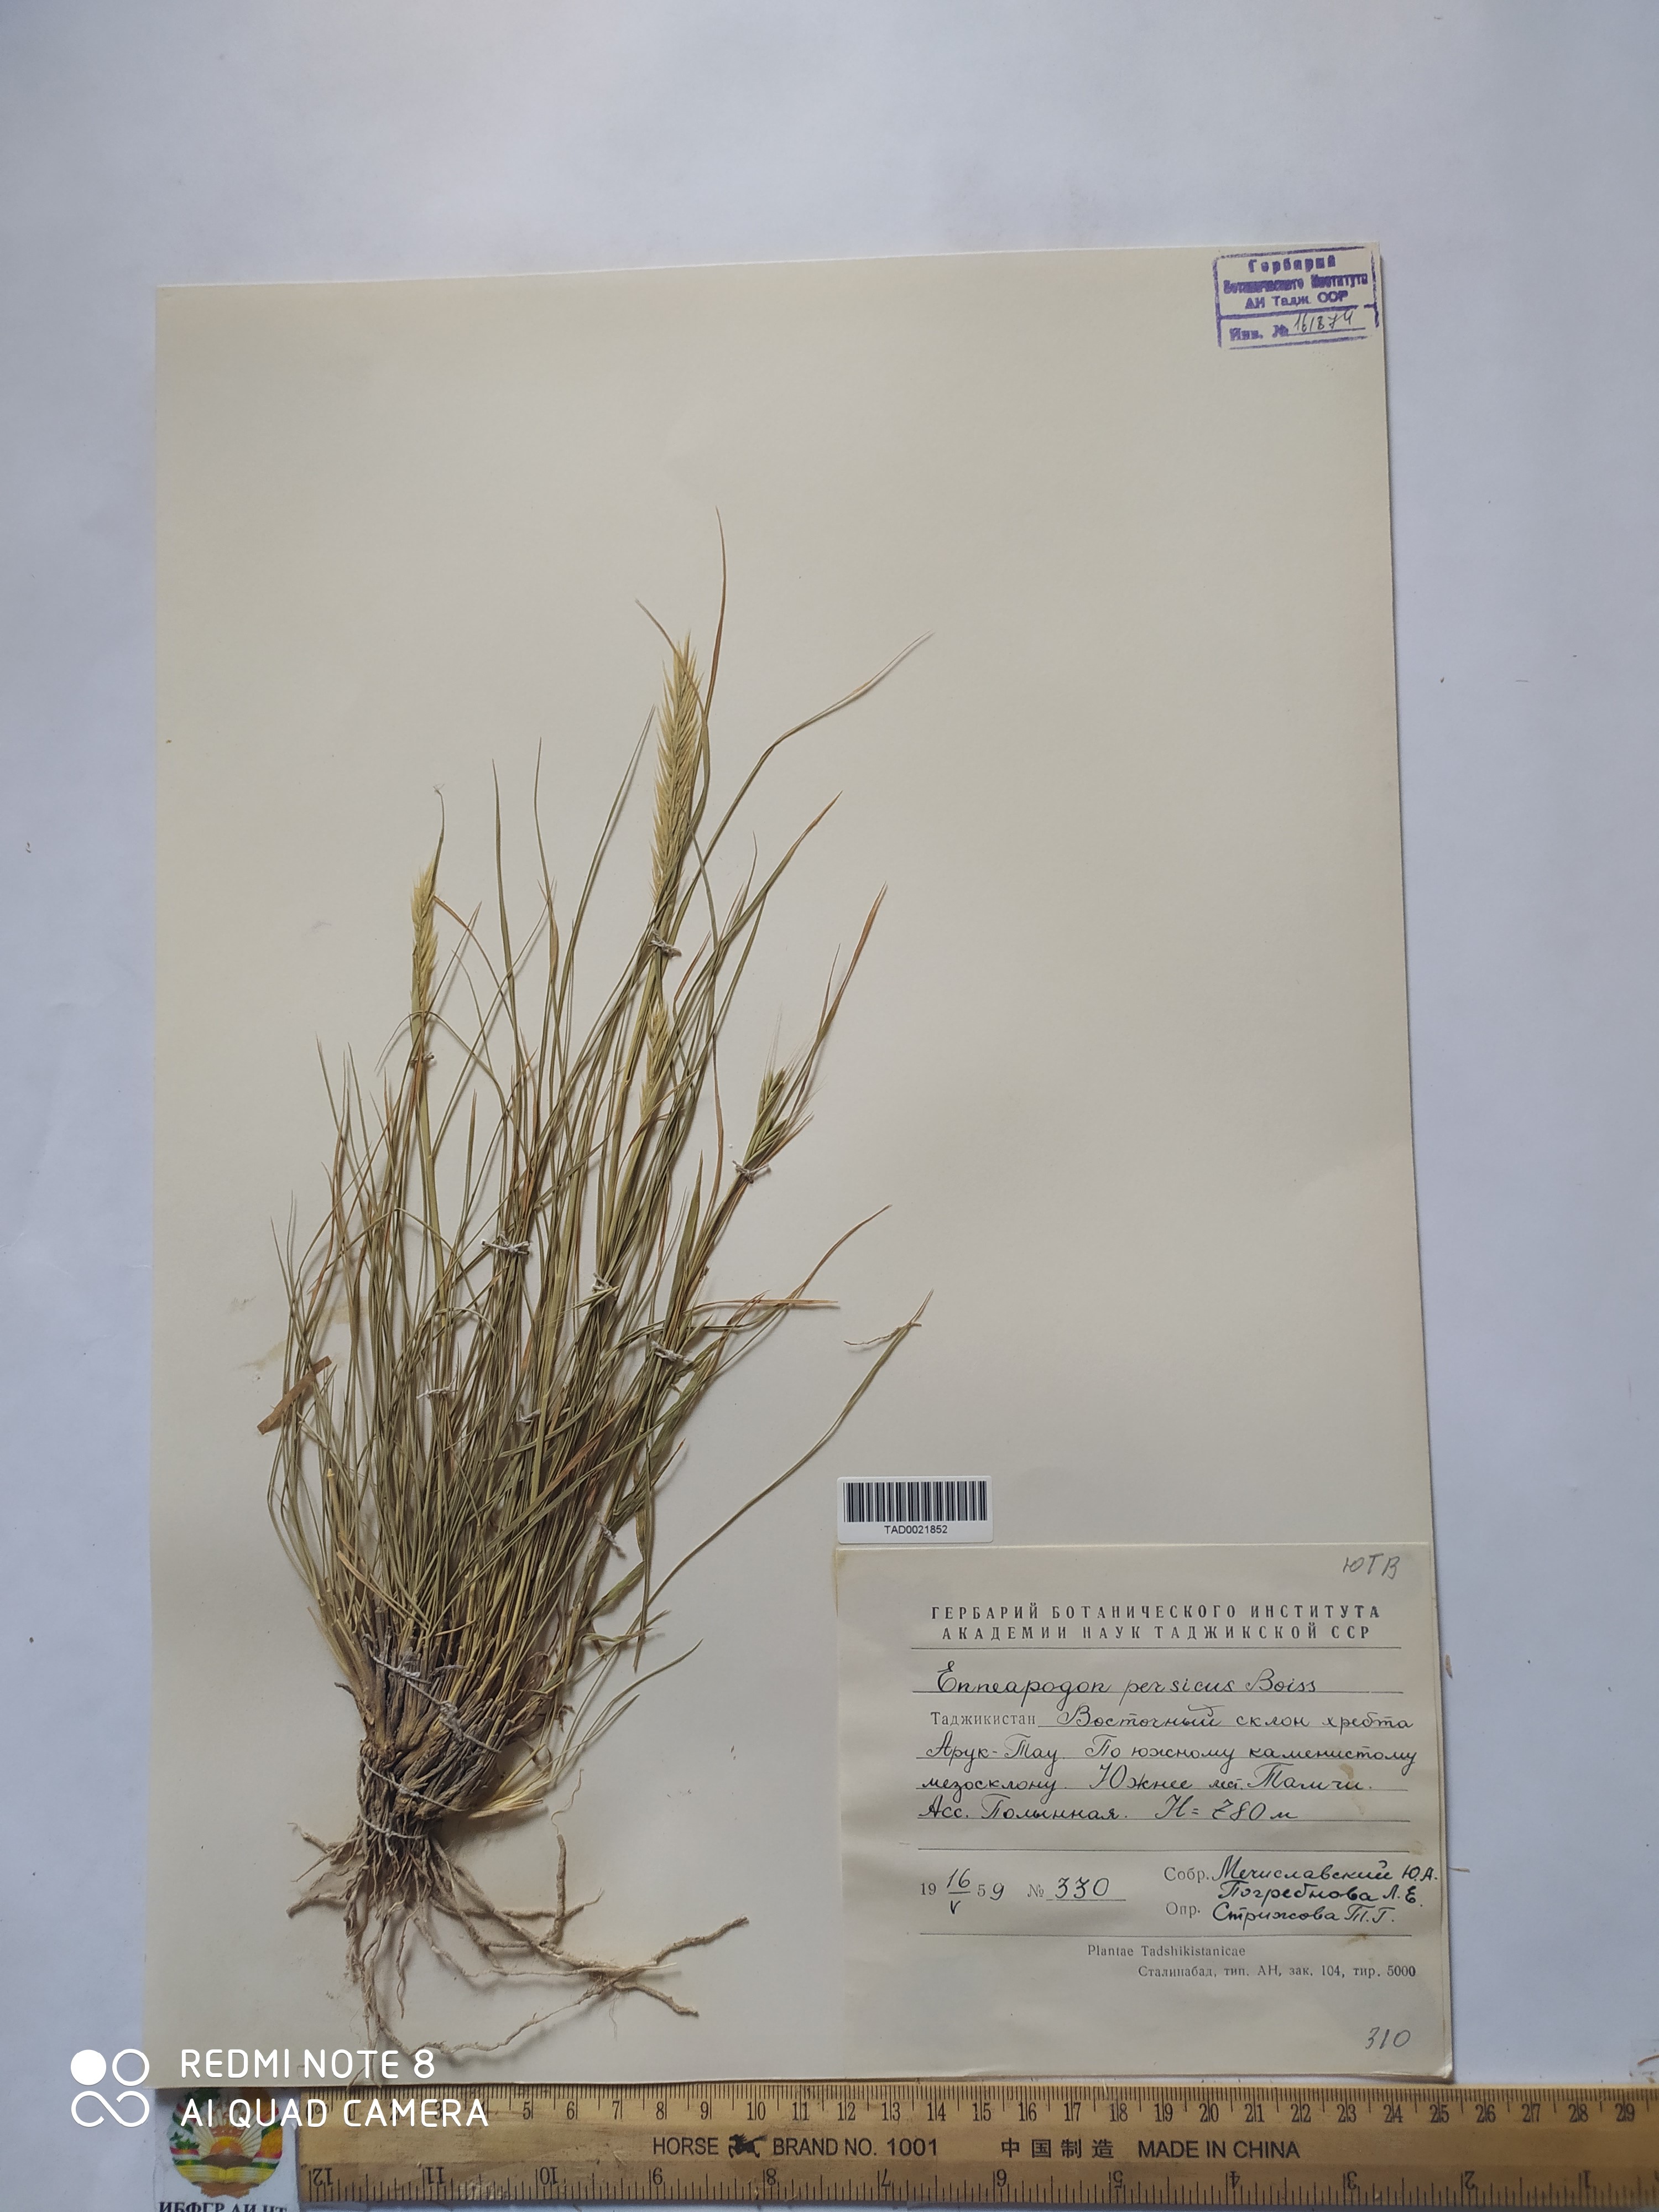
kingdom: Plantae
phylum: Tracheophyta
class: Liliopsida
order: Poales
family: Poaceae
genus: Enneapogon
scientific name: Enneapogon persicus
